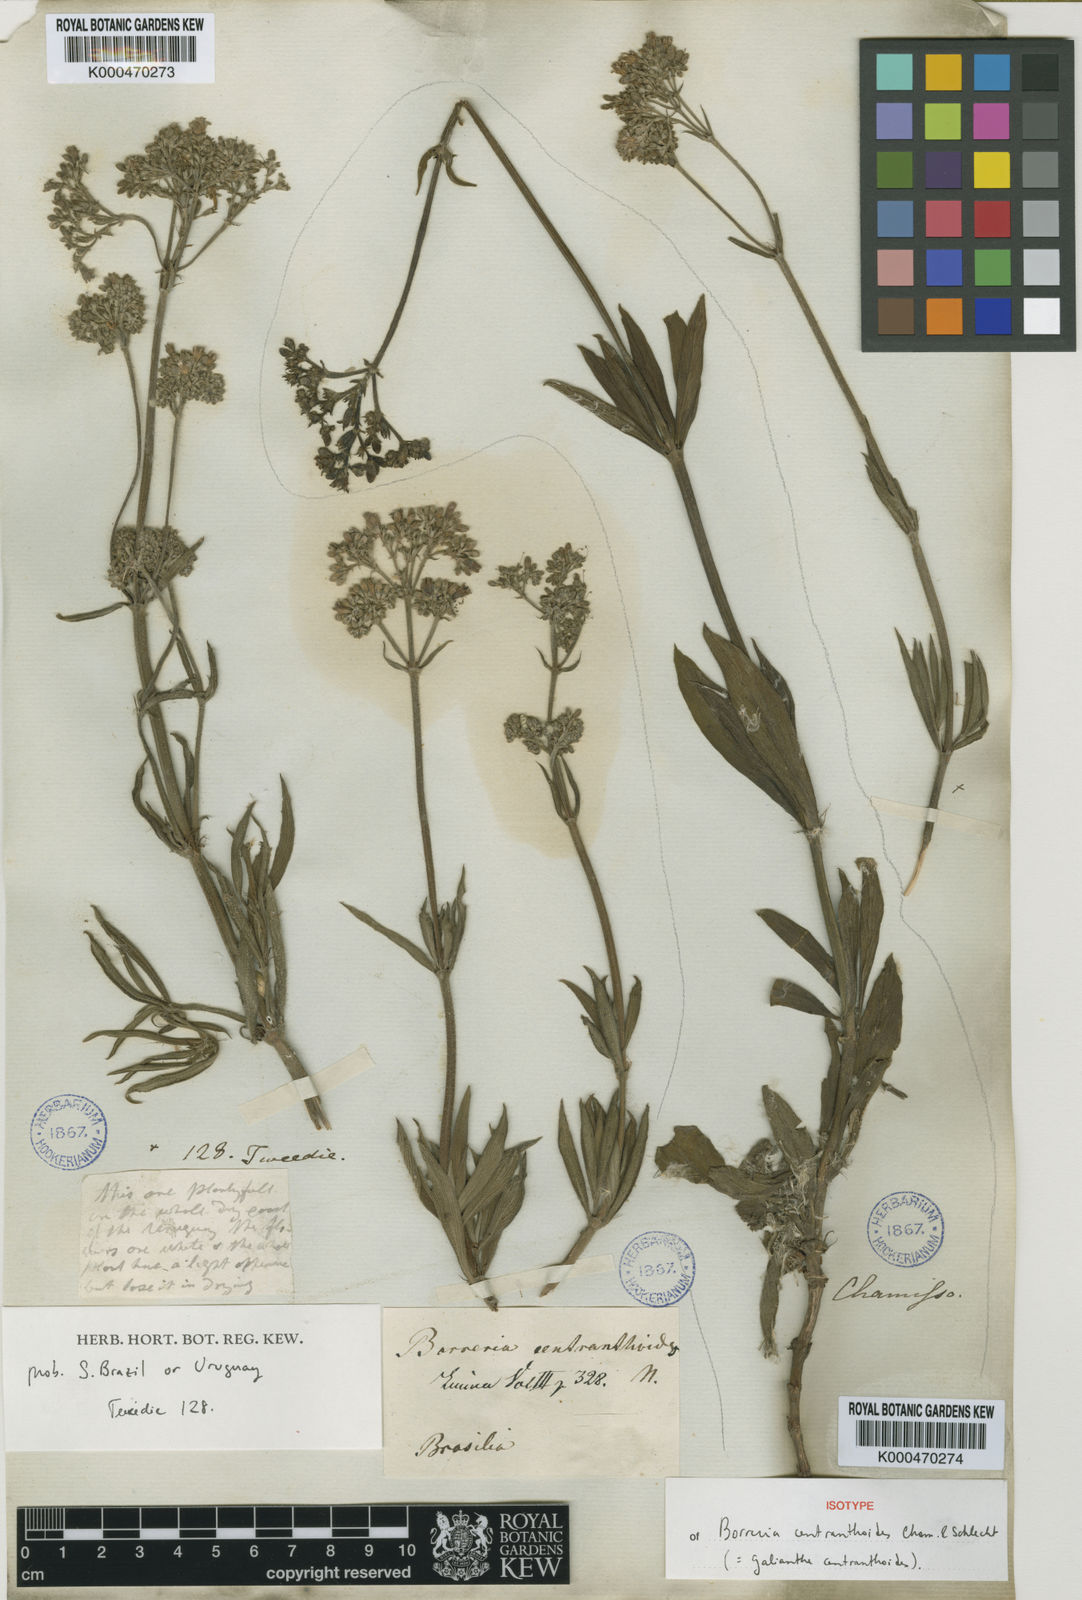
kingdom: Plantae
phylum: Tracheophyta
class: Magnoliopsida
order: Gentianales
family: Rubiaceae
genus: Galianthe
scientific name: Galianthe centranthoides
